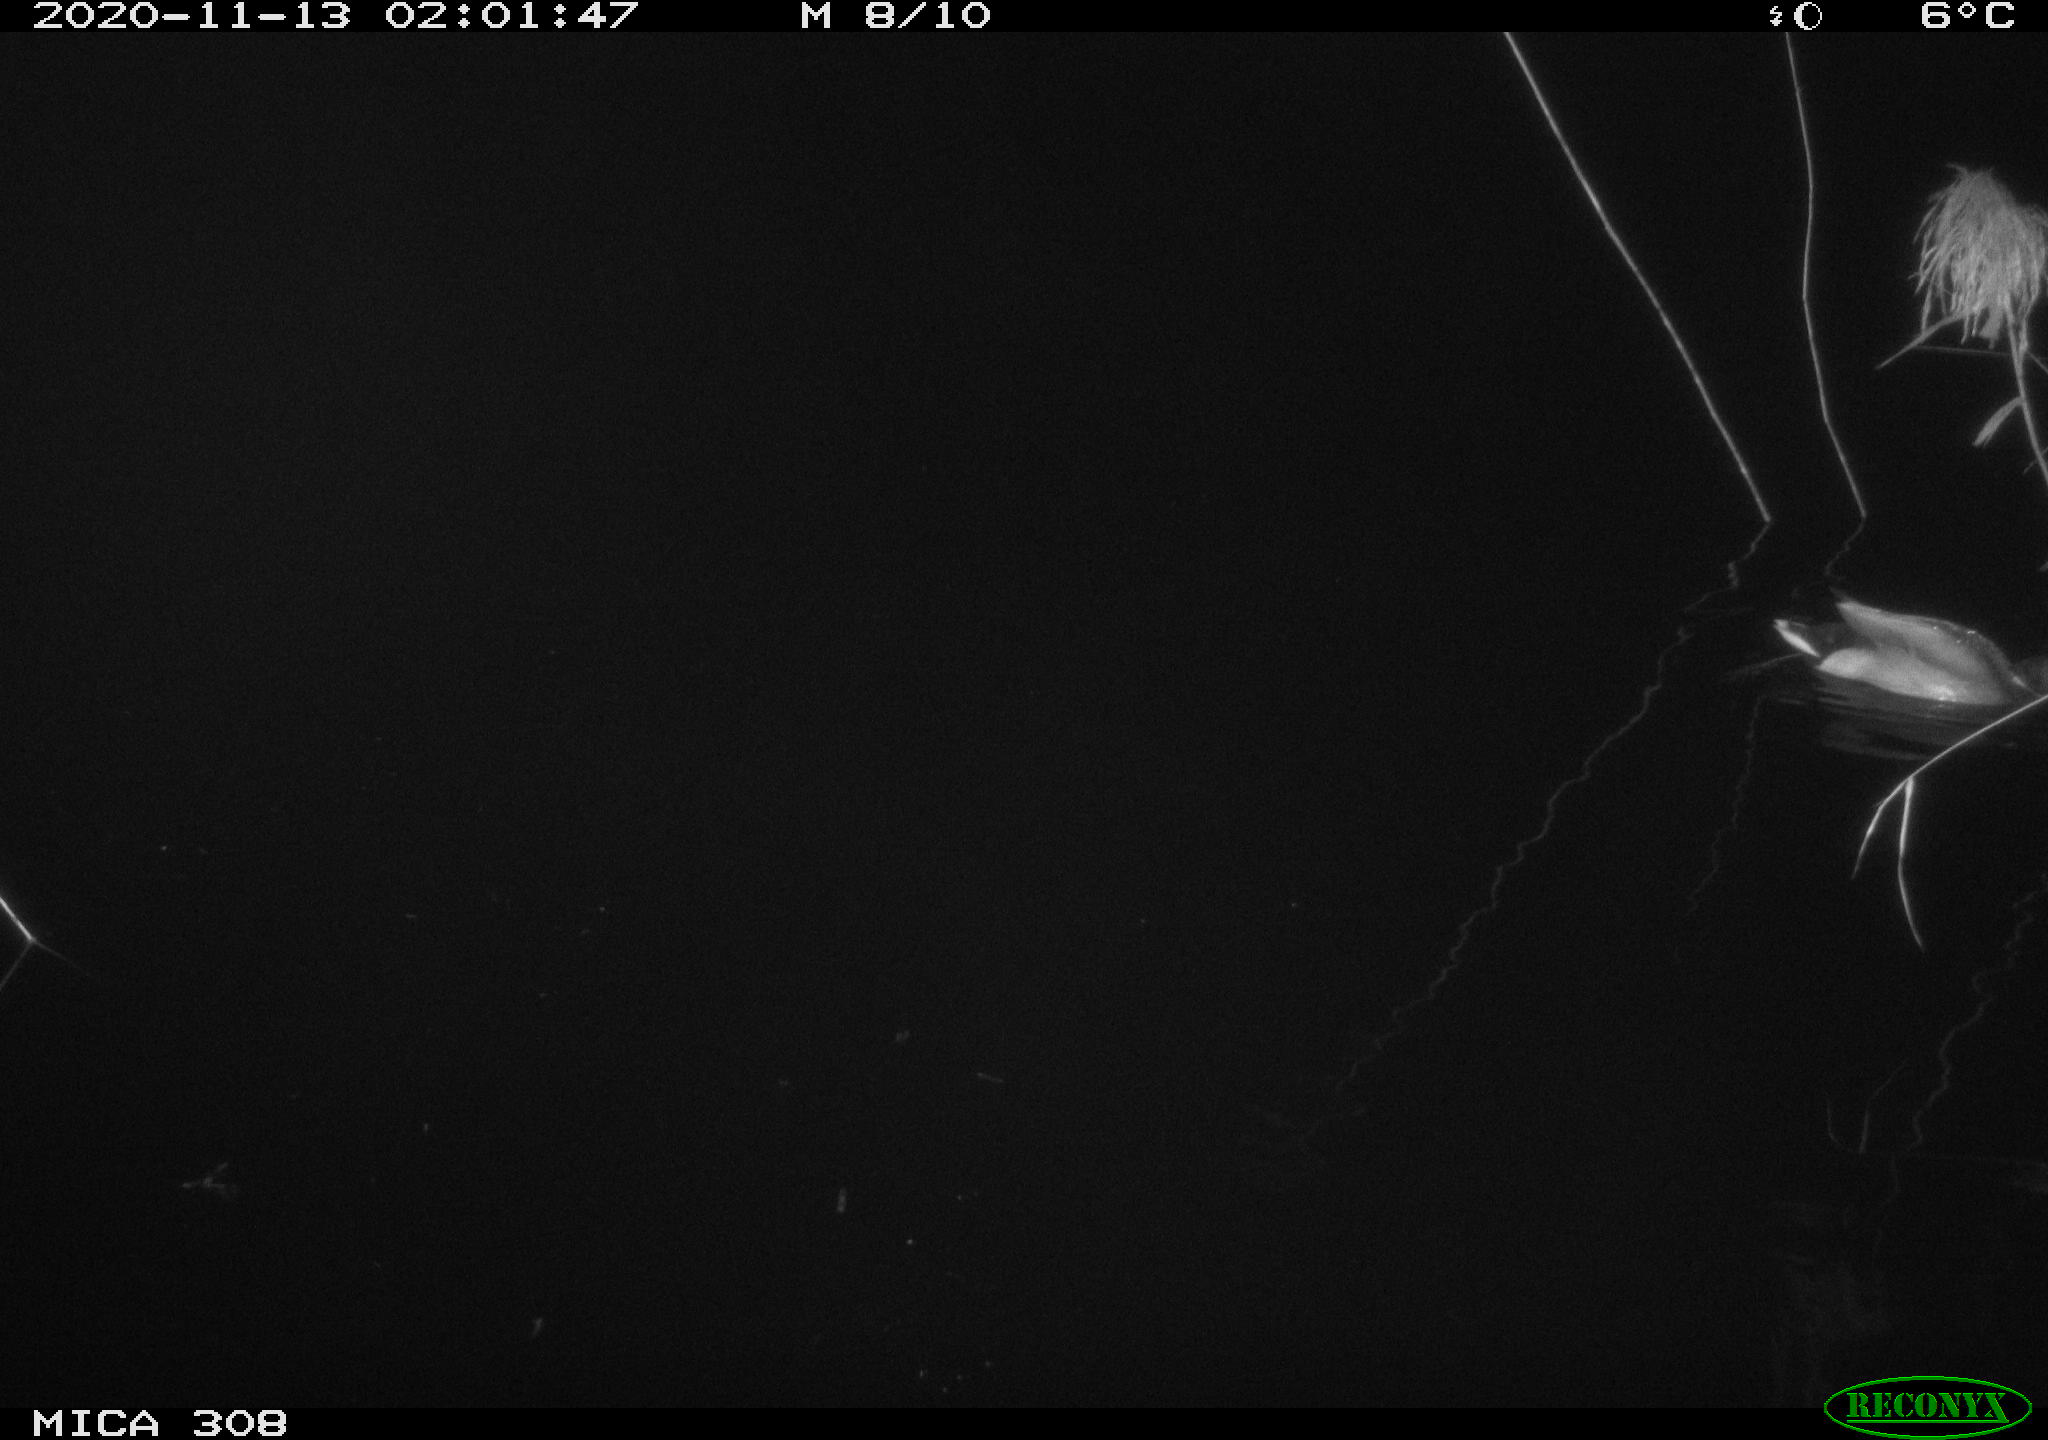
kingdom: Animalia
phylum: Chordata
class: Aves
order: Anseriformes
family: Anatidae
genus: Anas
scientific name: Anas platyrhynchos
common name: Mallard
